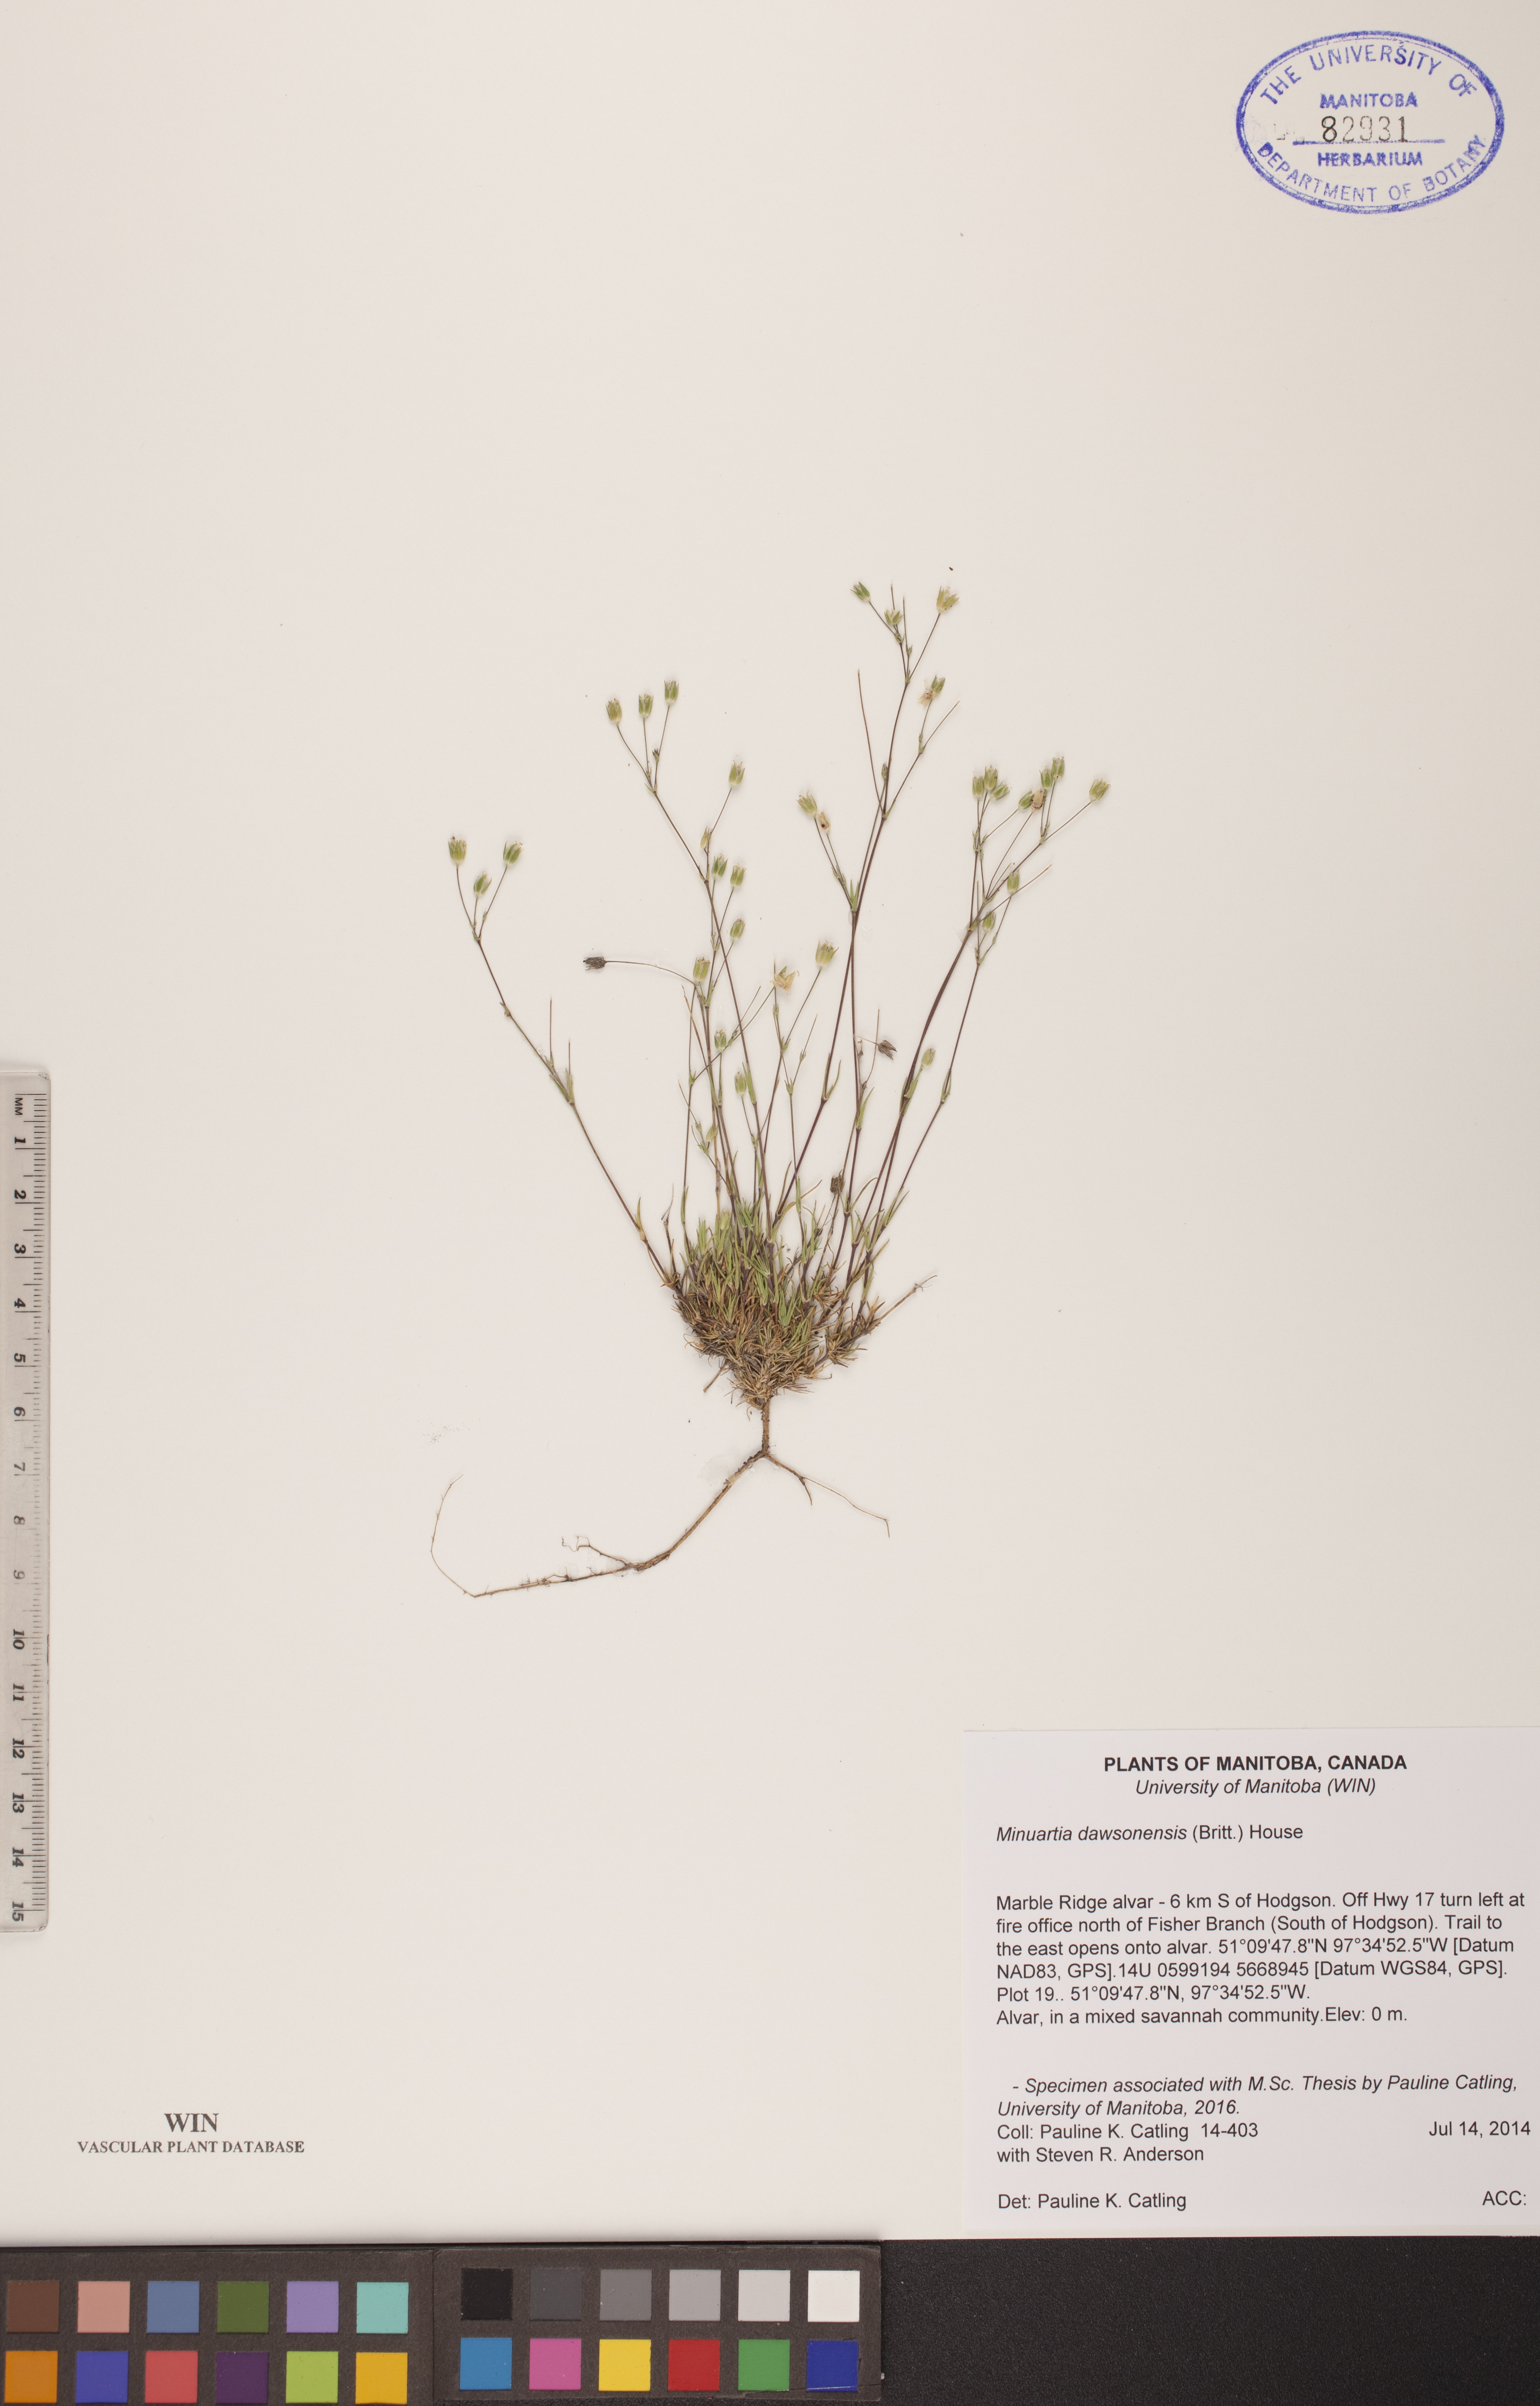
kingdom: Plantae
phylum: Tracheophyta
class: Magnoliopsida
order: Caryophyllales
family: Caryophyllaceae
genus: Sabulina
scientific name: Sabulina dawsonensis
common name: Dawson's cockle
